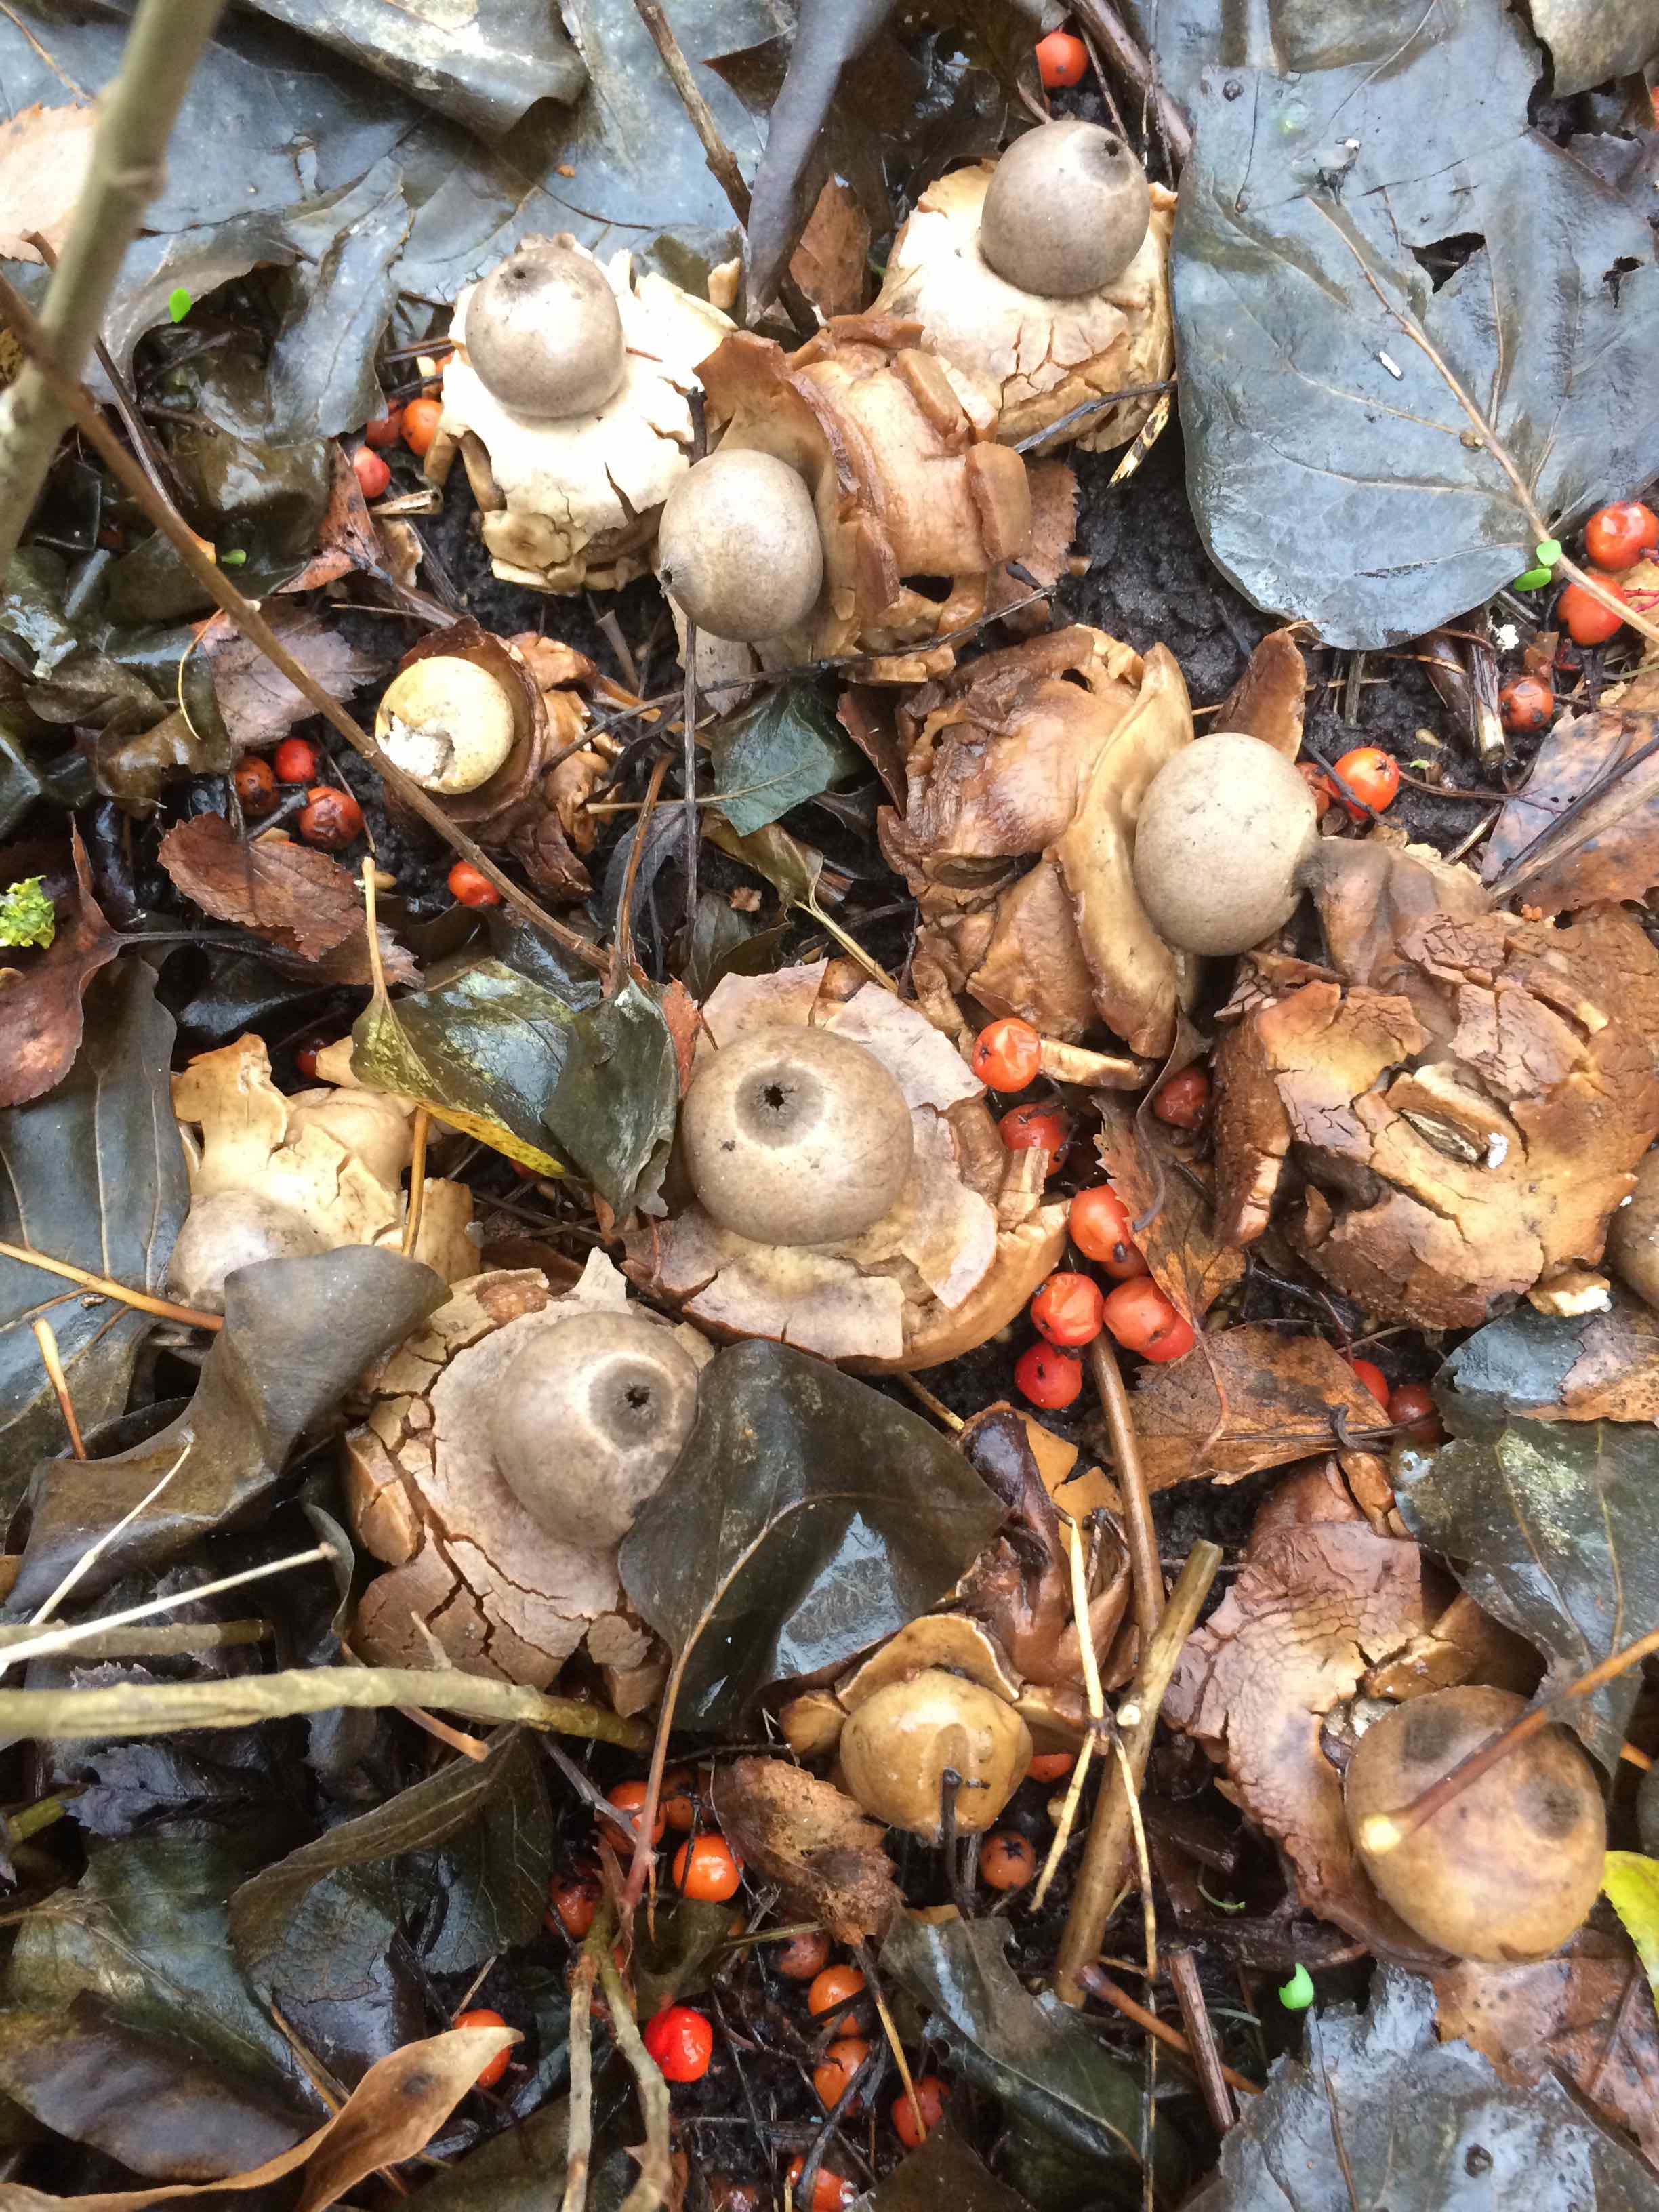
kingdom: Fungi
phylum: Basidiomycota
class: Agaricomycetes
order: Geastrales
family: Geastraceae
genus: Geastrum
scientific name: Geastrum michelianum
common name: kødet stjernebold
